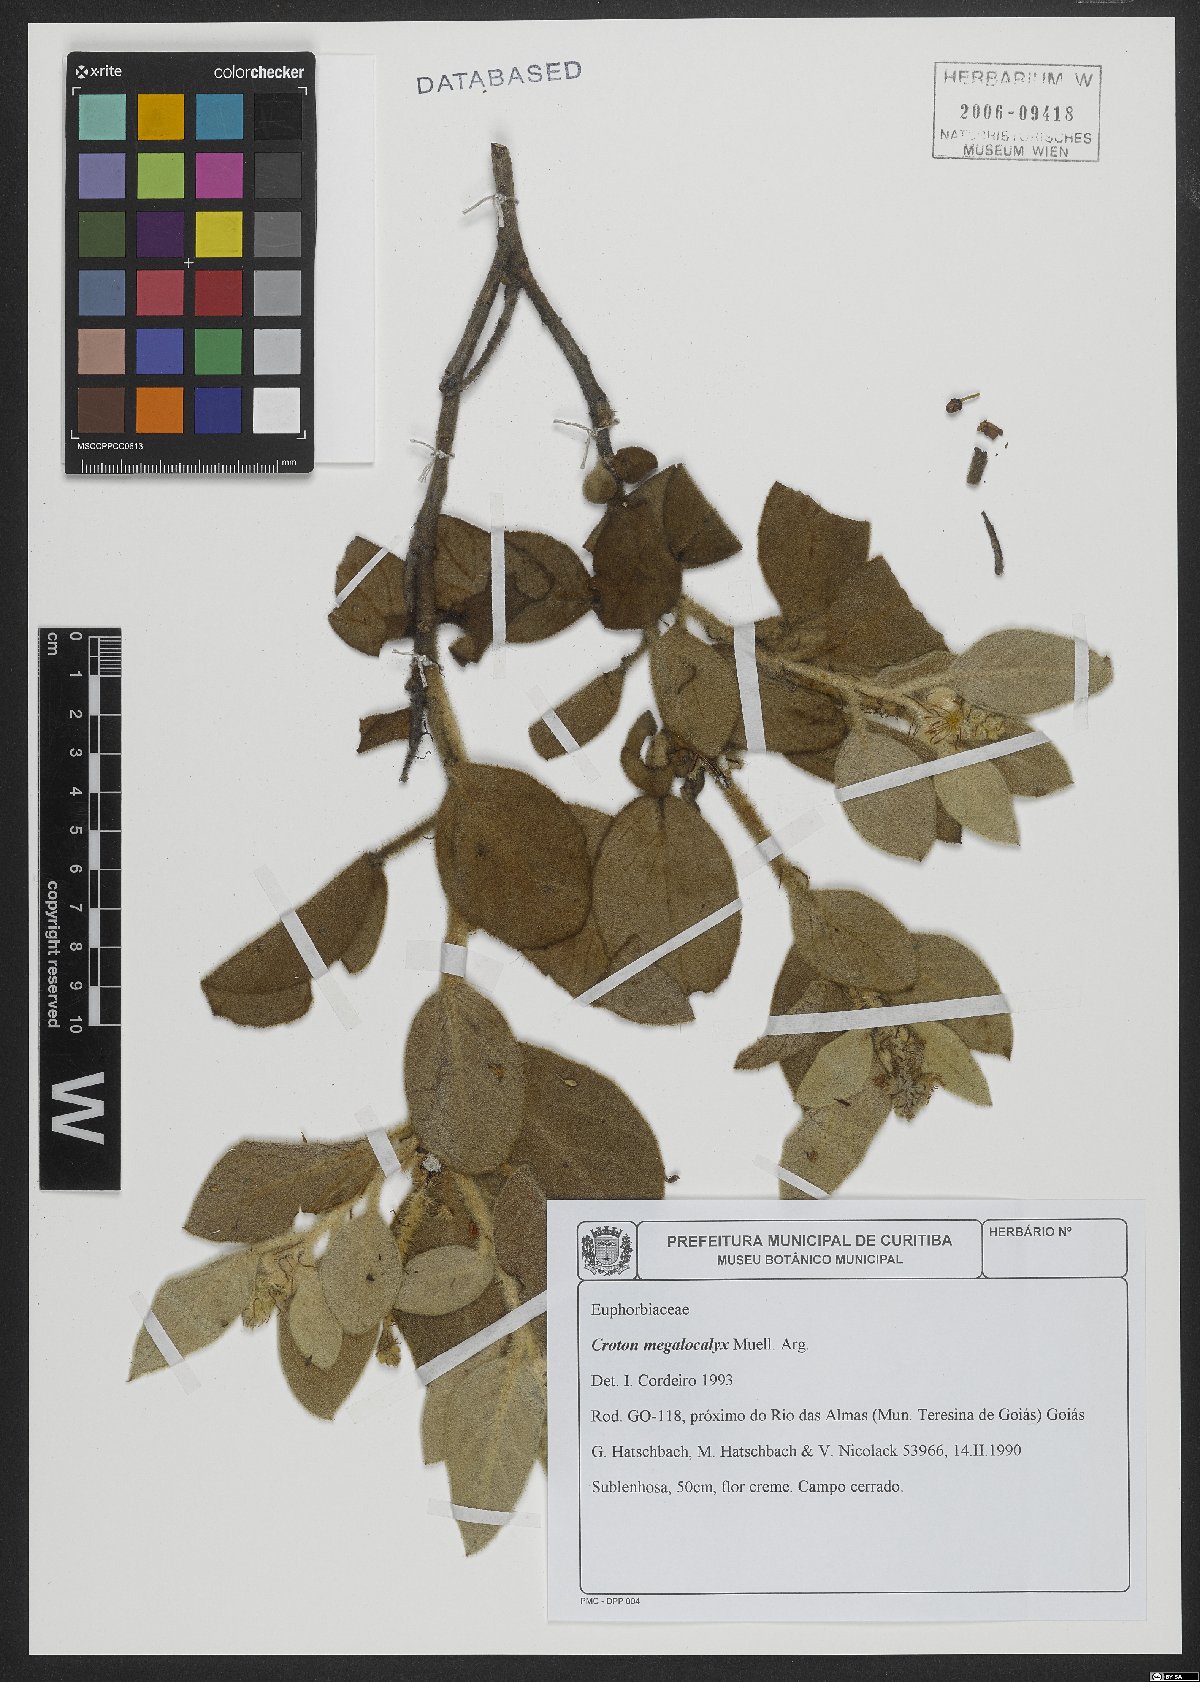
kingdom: Plantae
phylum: Tracheophyta
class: Magnoliopsida
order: Malpighiales
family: Euphorbiaceae
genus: Croton
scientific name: Croton megalocalyx
